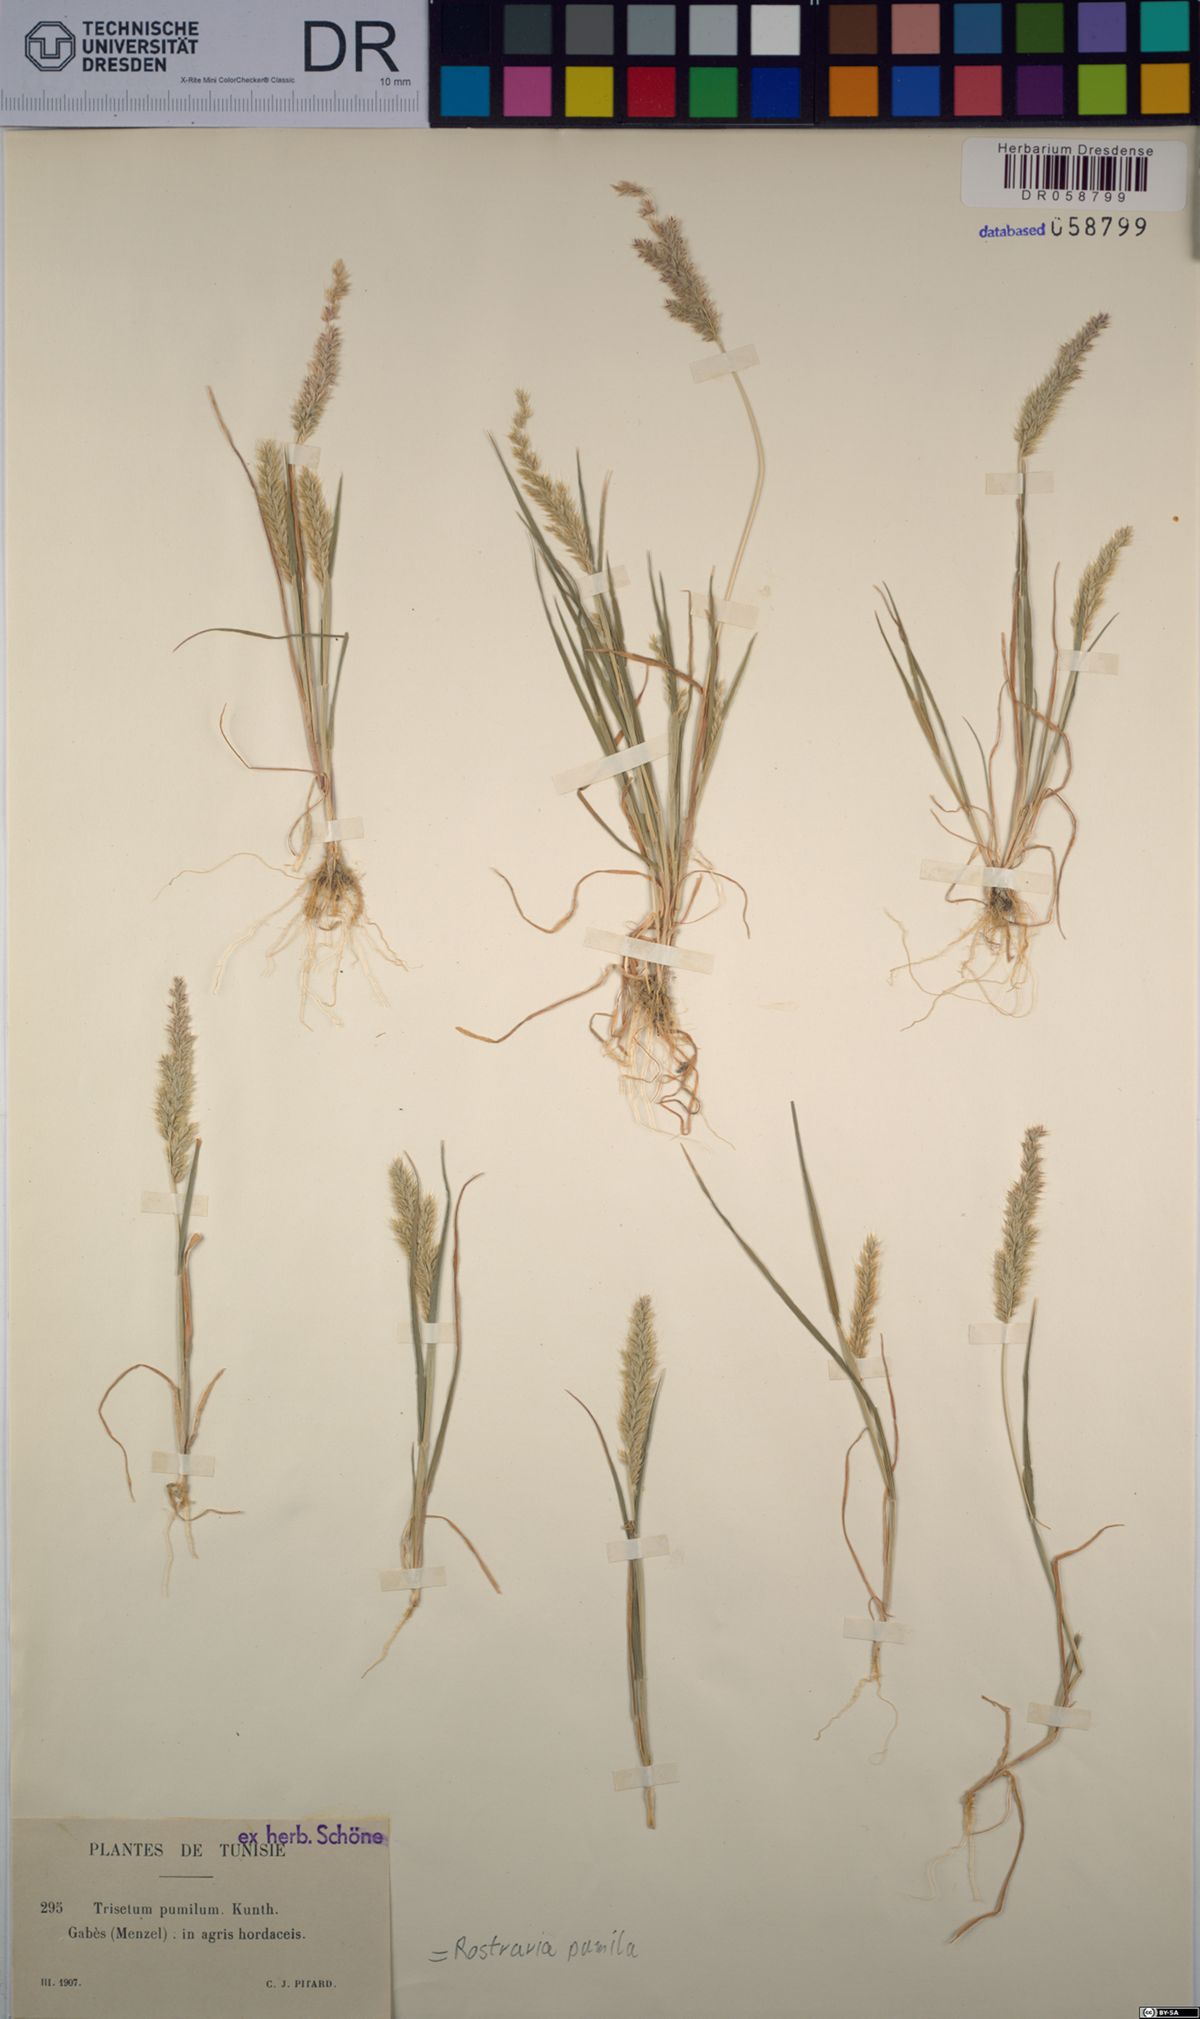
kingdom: Plantae
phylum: Tracheophyta
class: Liliopsida
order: Poales
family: Poaceae
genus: Rostraria
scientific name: Rostraria pumila
